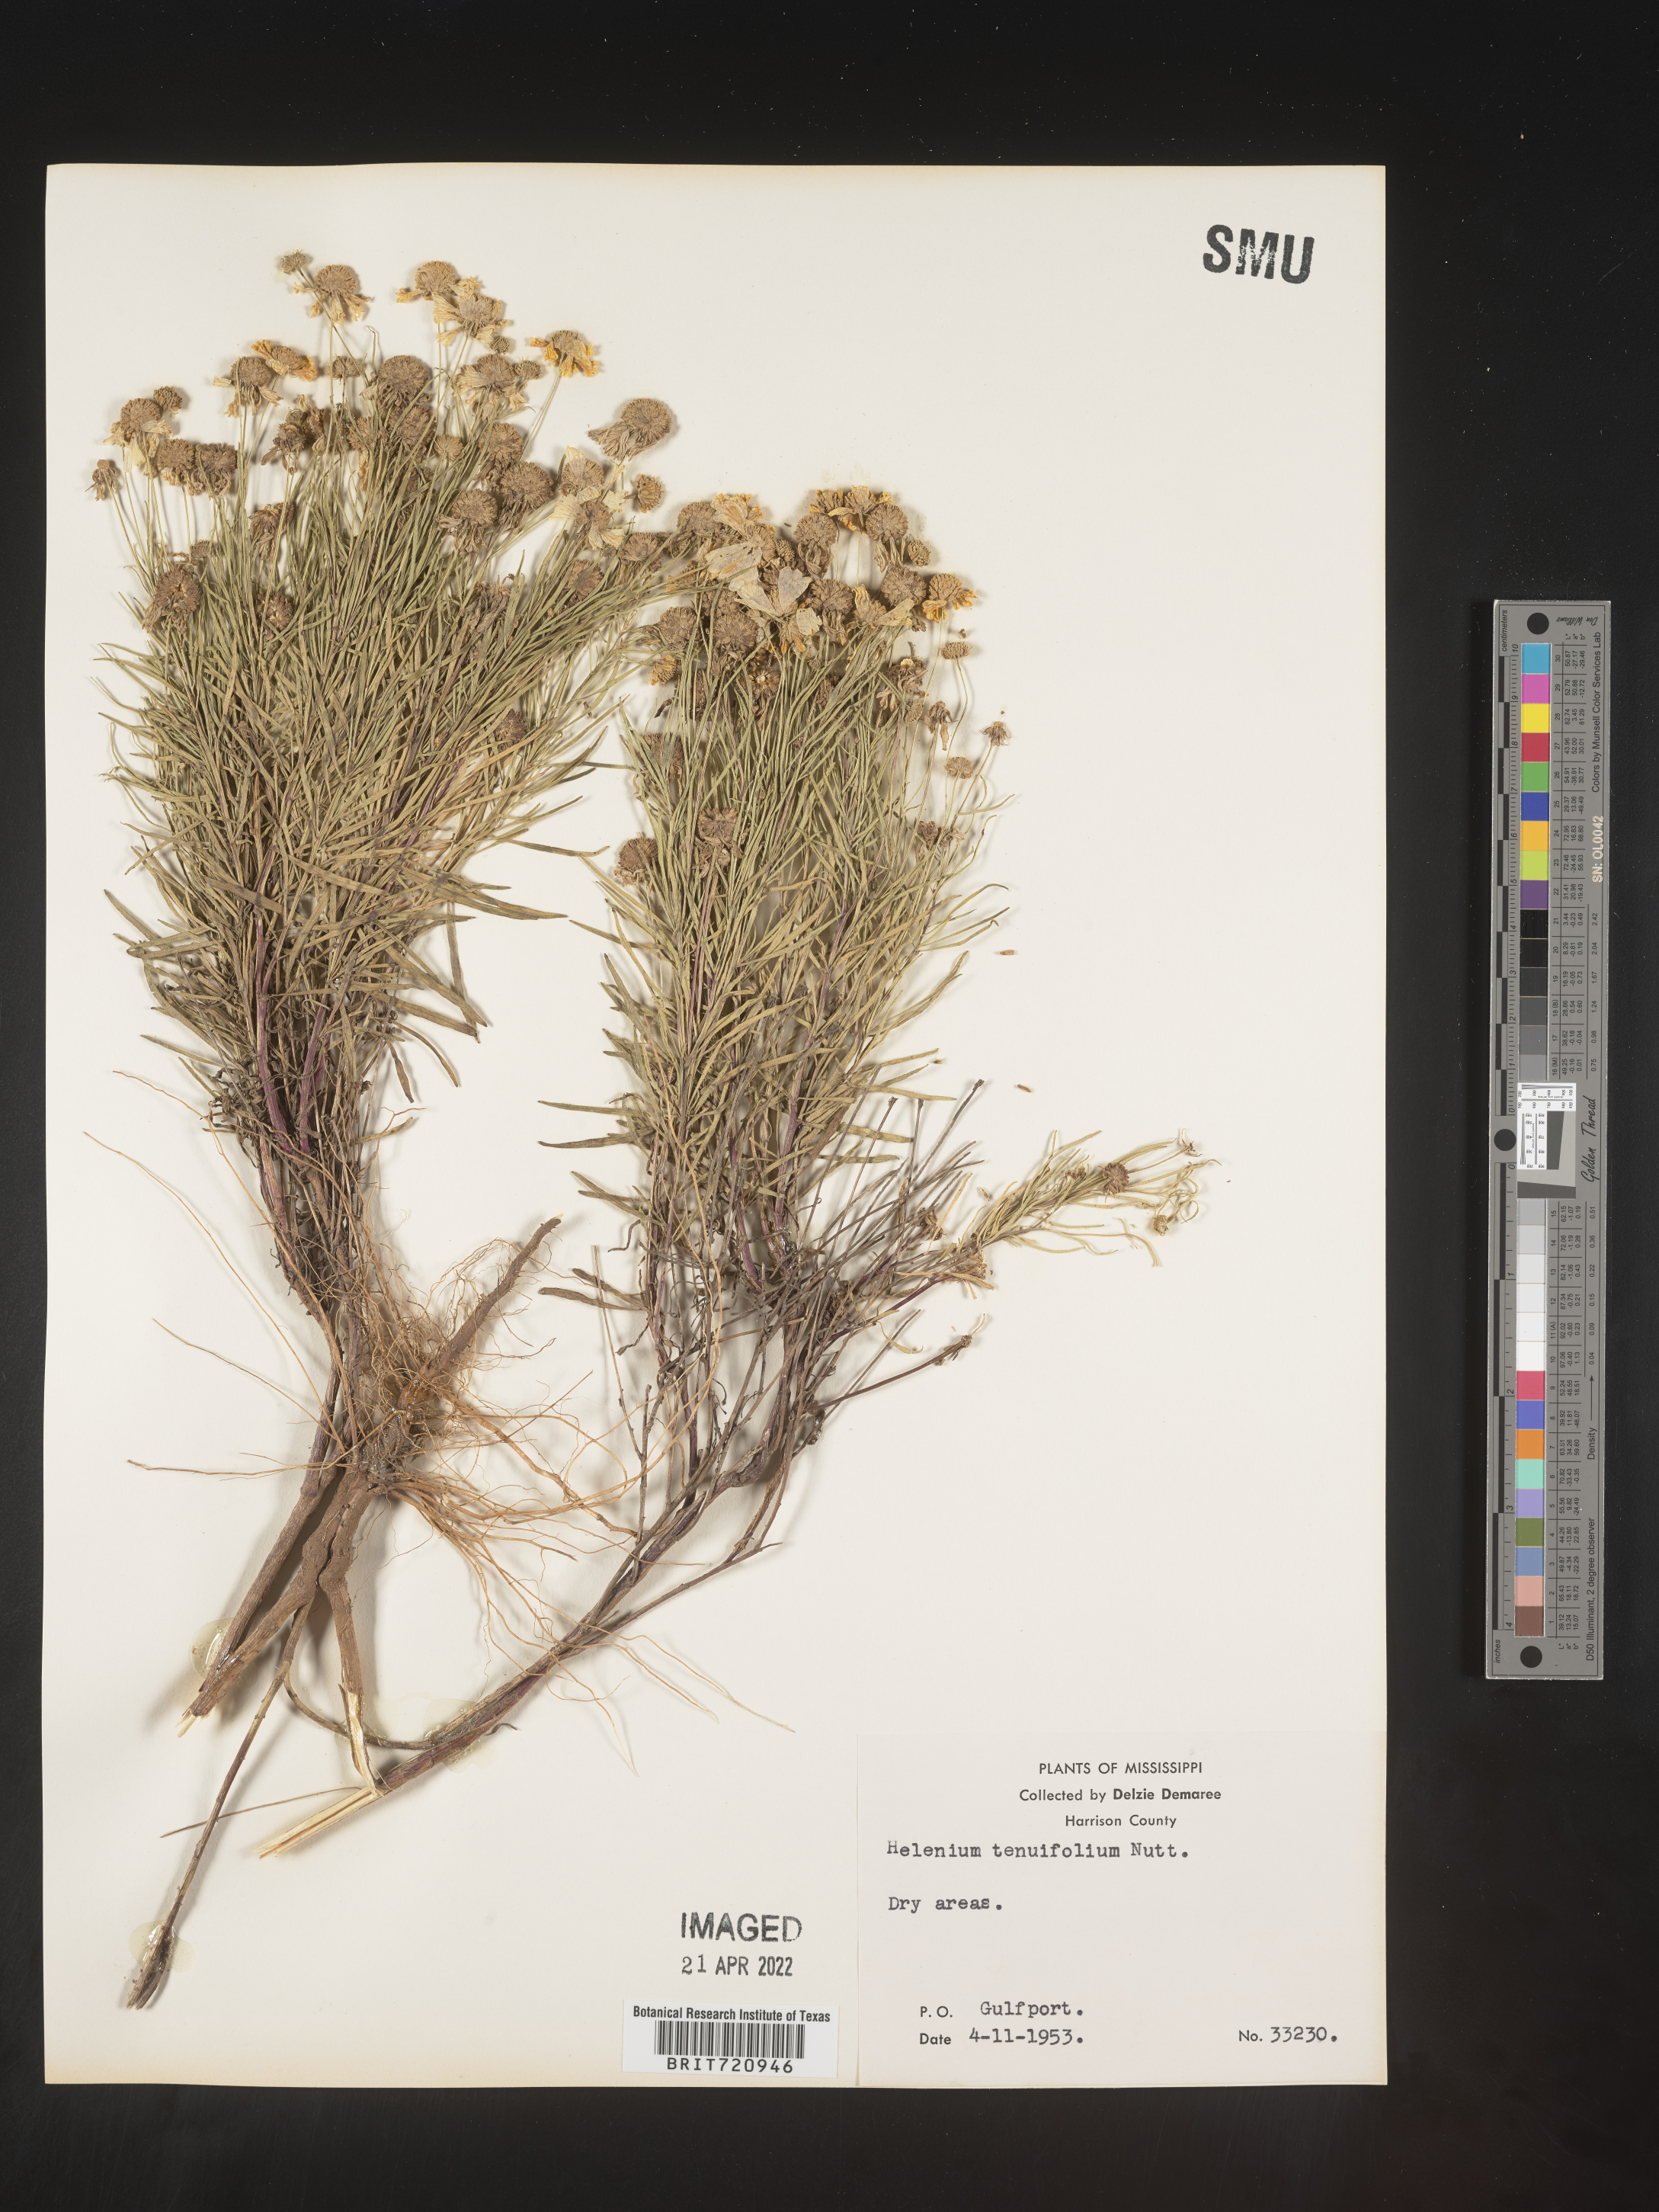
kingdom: Plantae
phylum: Tracheophyta
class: Magnoliopsida
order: Asterales
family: Asteraceae
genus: Helenium
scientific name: Helenium amarum
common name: Bitter sneezeweed
